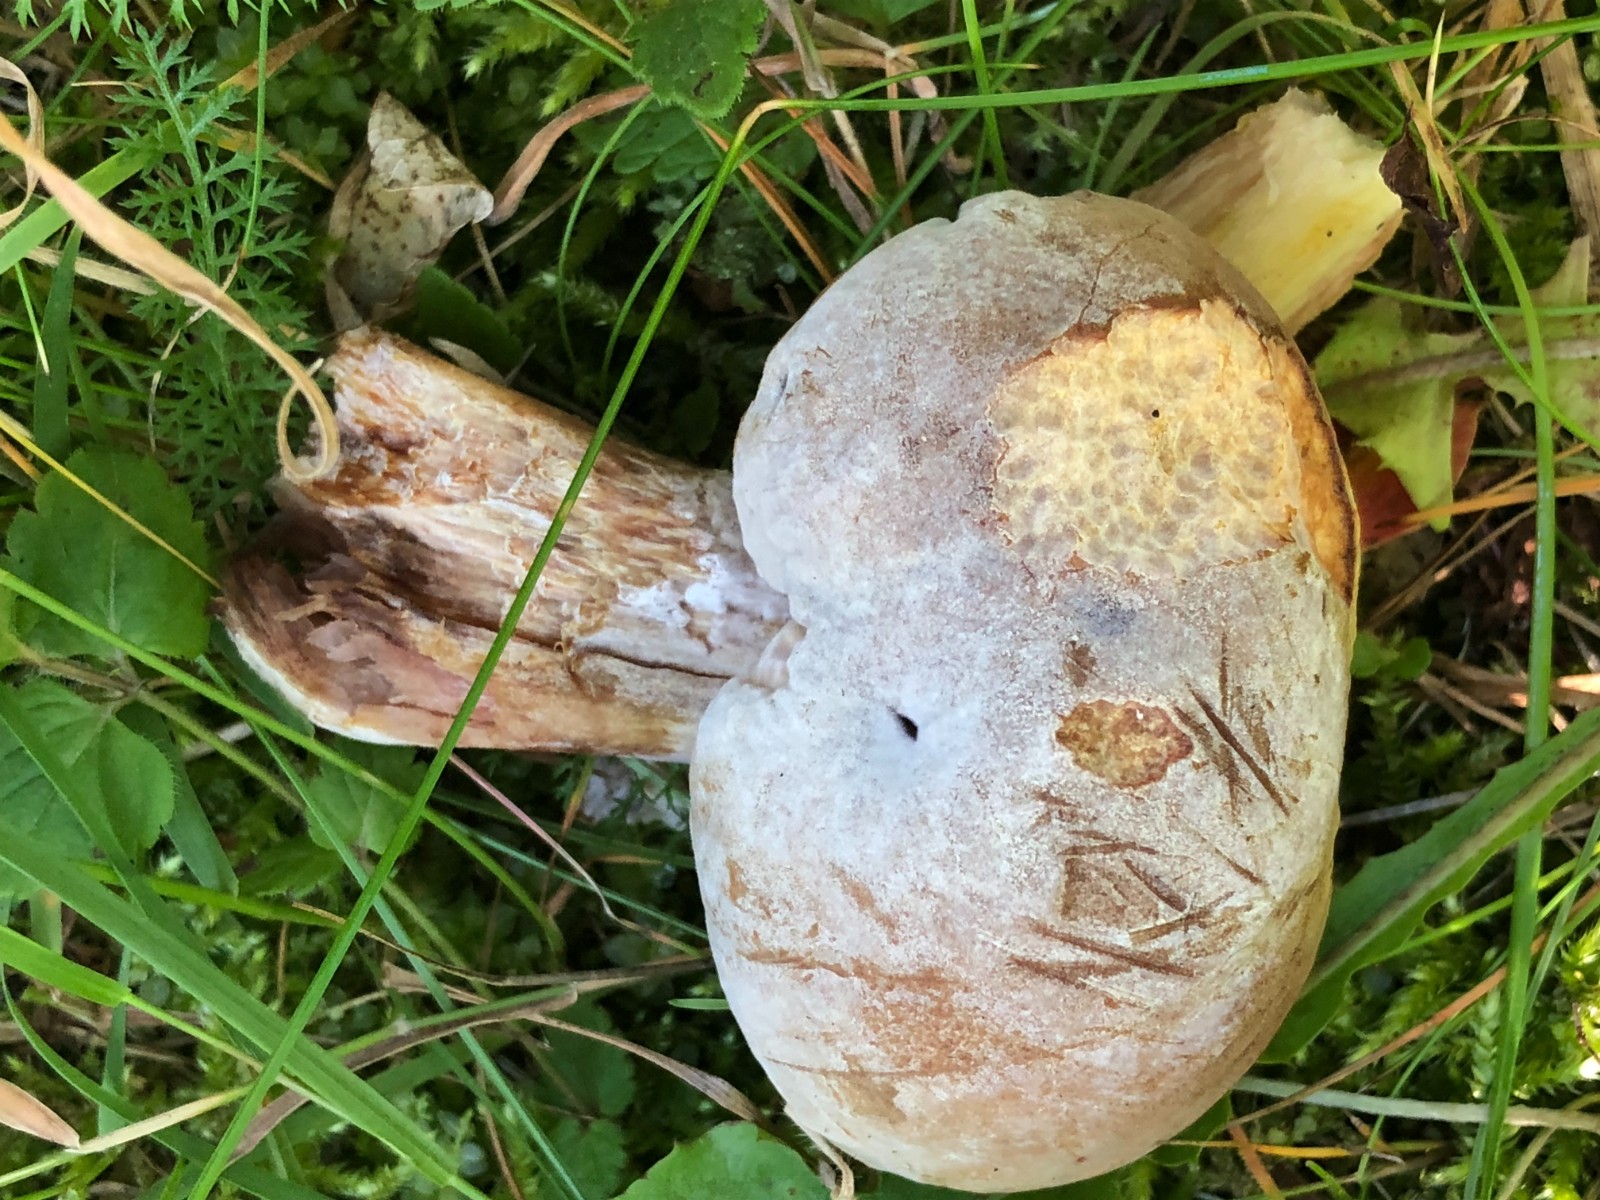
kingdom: Fungi
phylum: Ascomycota
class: Sordariomycetes
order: Hypocreales
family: Hypocreaceae
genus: Hypomyces
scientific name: Hypomyces
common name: snylteskorpe
